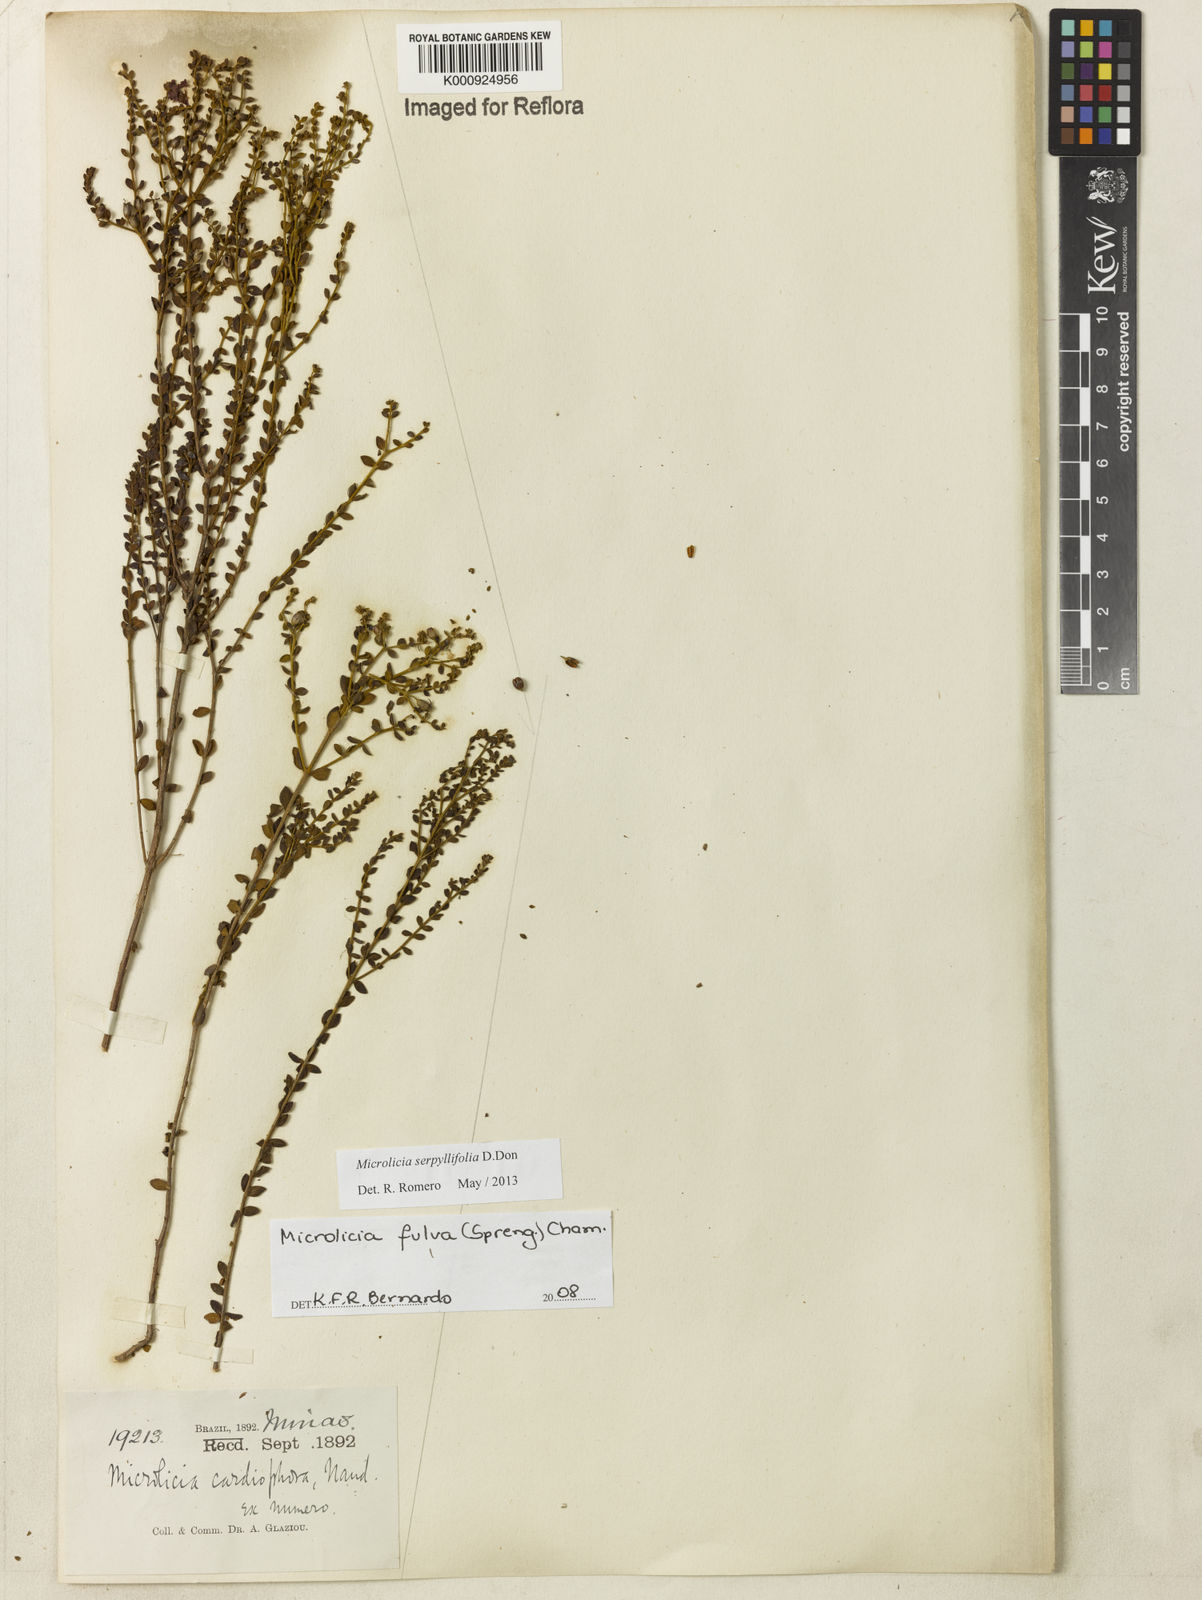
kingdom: Plantae
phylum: Tracheophyta
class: Magnoliopsida
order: Myrtales
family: Melastomataceae
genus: Microlicia
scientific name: Microlicia fulva
